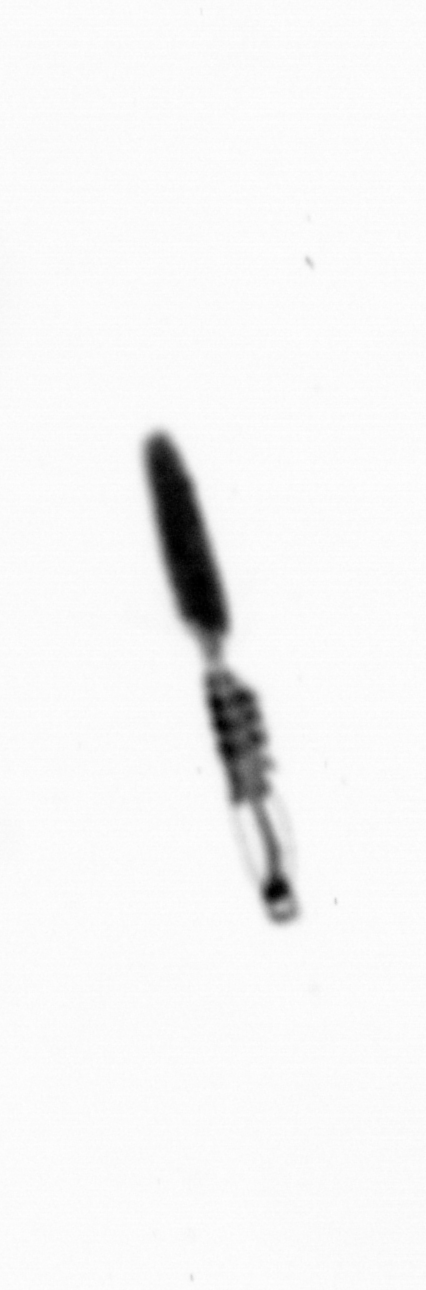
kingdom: Animalia
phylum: Arthropoda
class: Copepoda
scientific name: Copepoda
